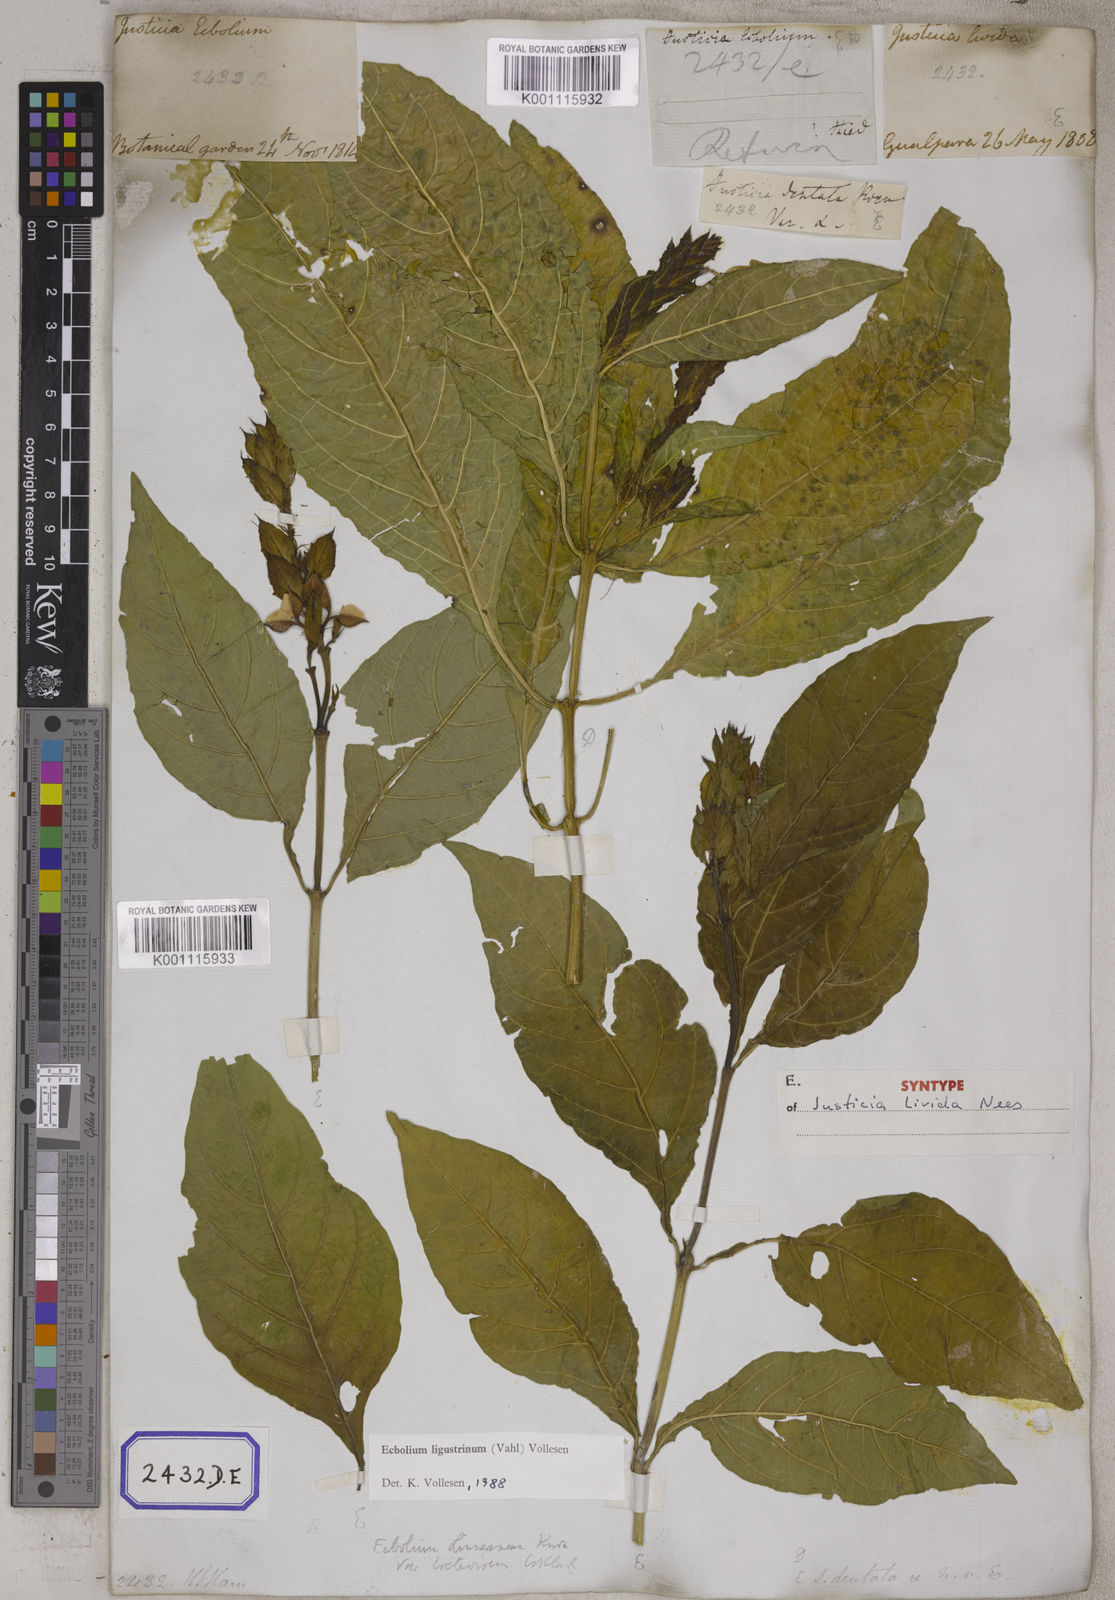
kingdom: Plantae
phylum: Tracheophyta
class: Magnoliopsida
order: Lamiales
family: Acanthaceae
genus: Ecbolium
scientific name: Ecbolium ligustrinum
